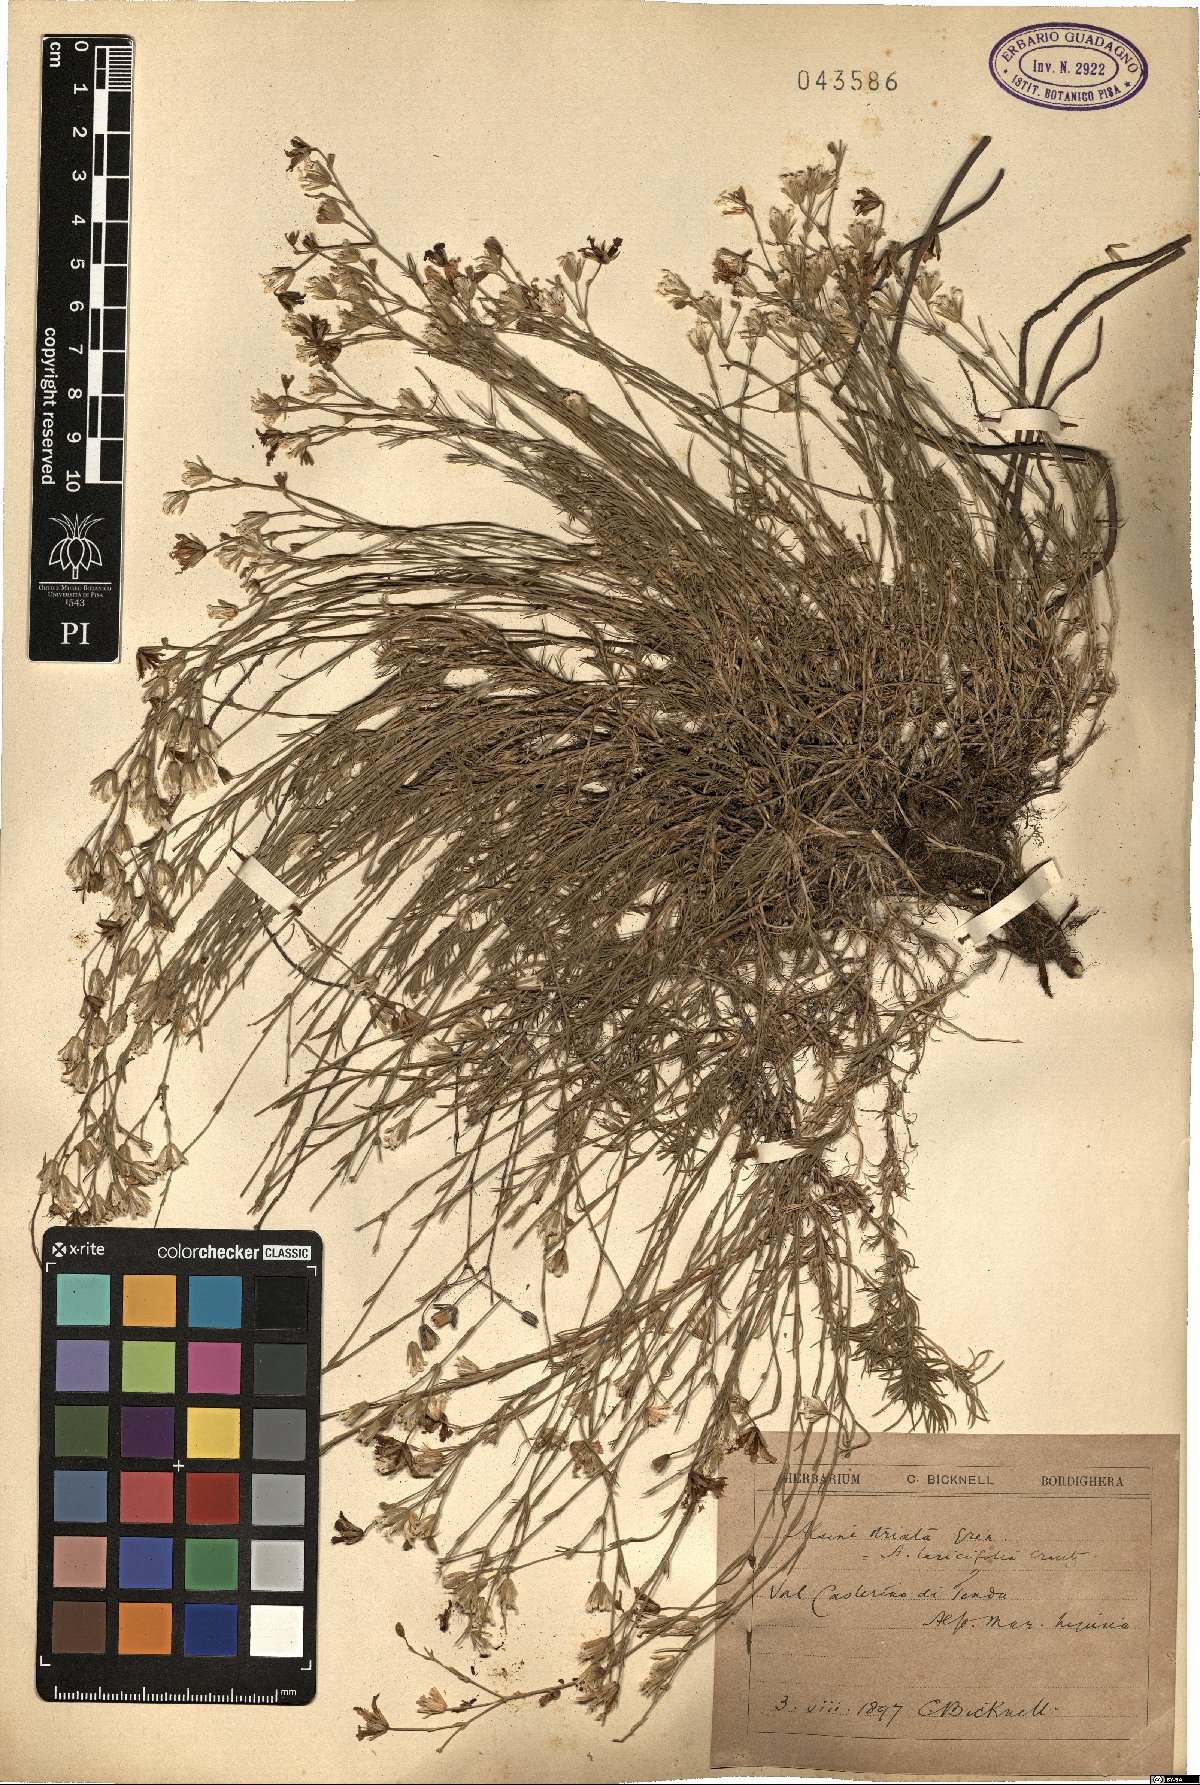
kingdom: Plantae
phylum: Tracheophyta
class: Magnoliopsida
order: Caryophyllales
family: Caryophyllaceae
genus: Cherleria
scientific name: Cherleria laricifolia
